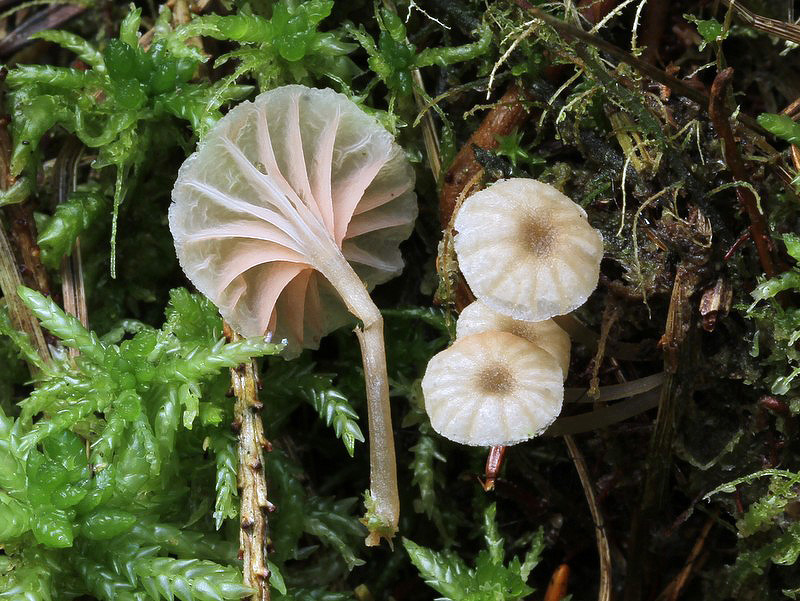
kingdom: Fungi
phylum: Basidiomycota
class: Agaricomycetes
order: Agaricales
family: Entolomataceae
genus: Entoloma
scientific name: Entoloma rhodocylix
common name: fjernbladet rødblad
